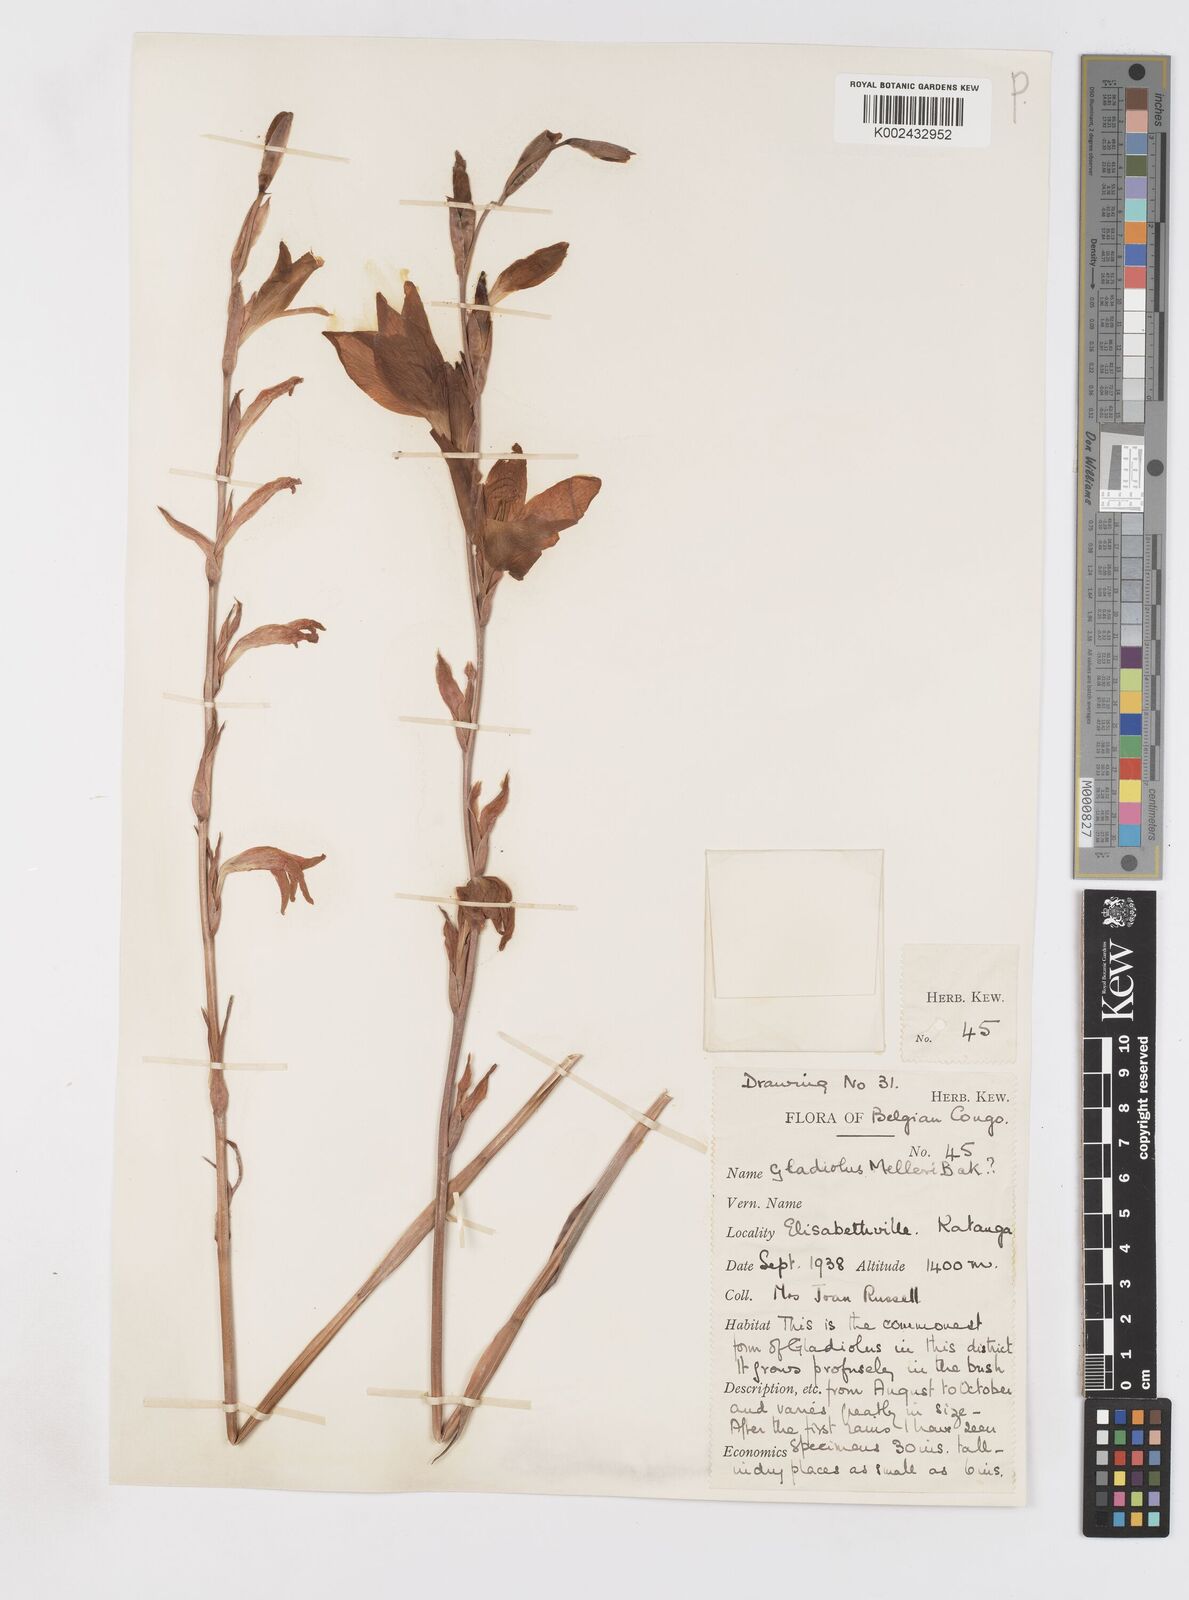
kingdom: Plantae
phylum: Tracheophyta
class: Liliopsida
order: Asparagales
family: Iridaceae
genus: Gladiolus
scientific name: Gladiolus melleri
